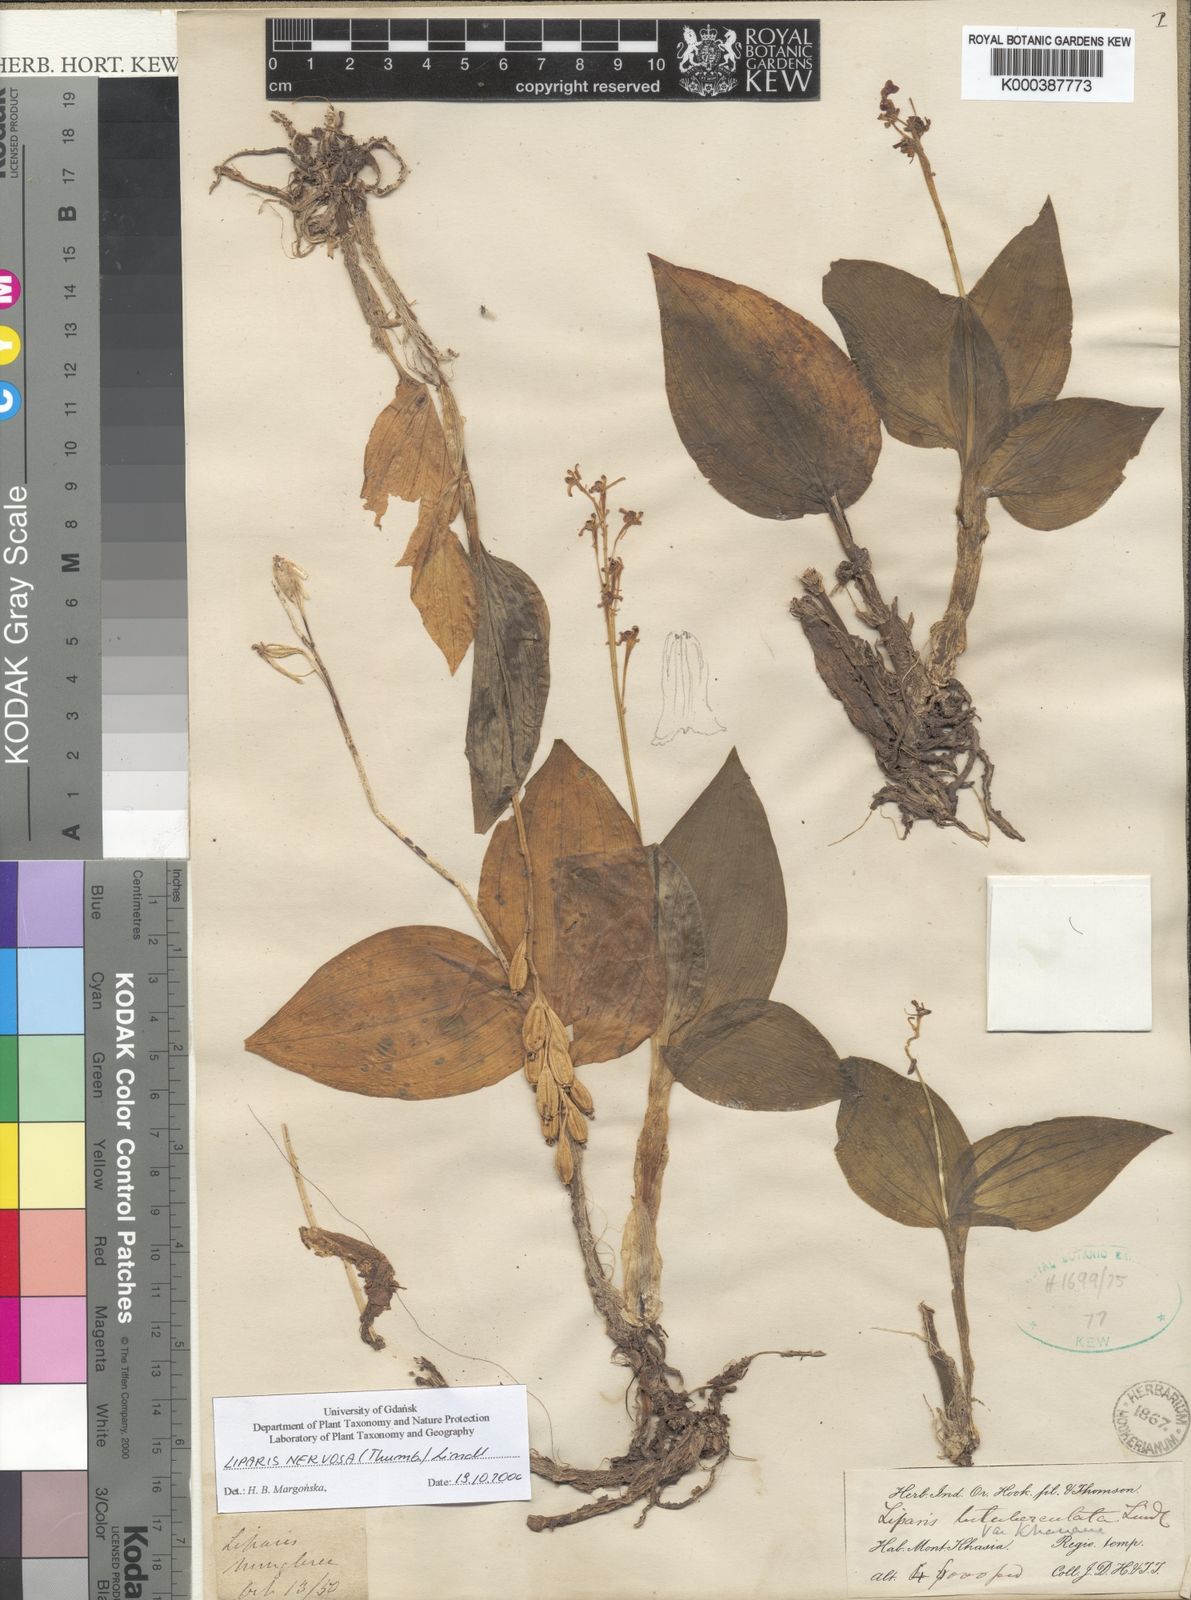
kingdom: Plantae
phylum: Tracheophyta
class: Liliopsida
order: Asparagales
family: Orchidaceae
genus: Liparis
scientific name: Liparis nervosa
